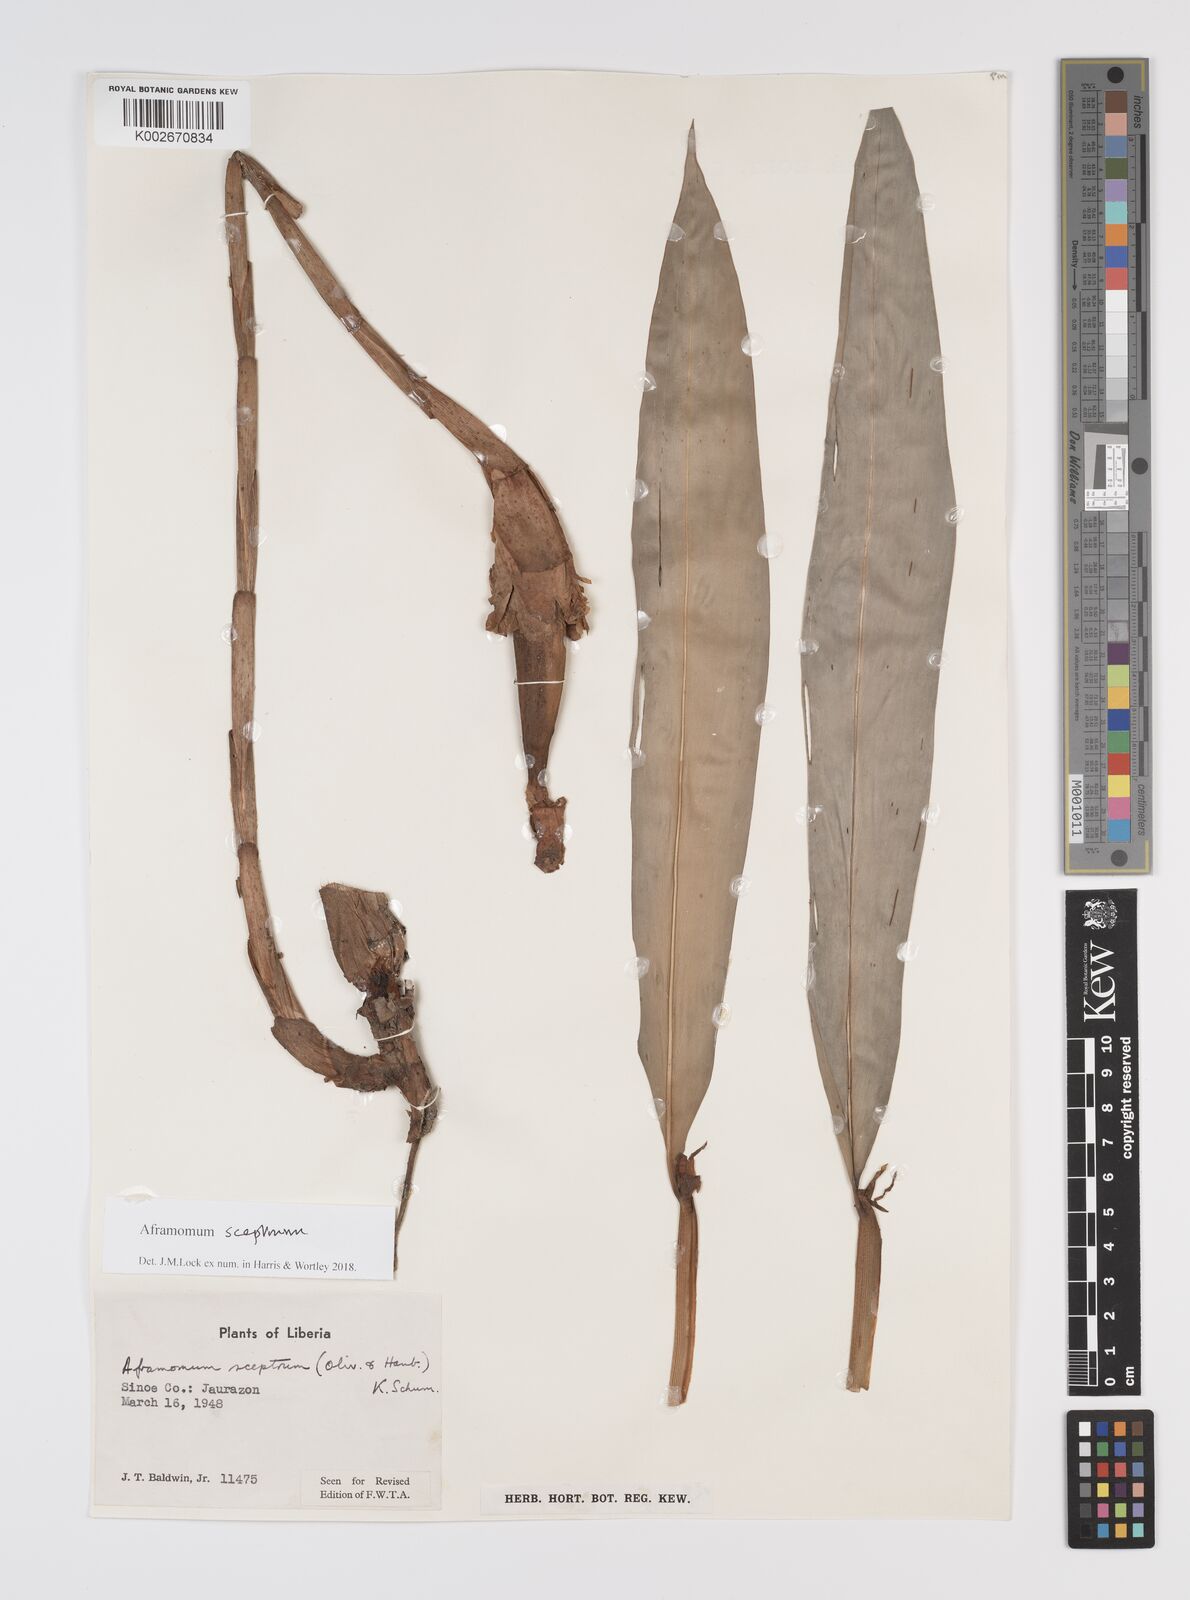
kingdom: Plantae
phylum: Tracheophyta
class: Liliopsida
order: Zingiberales
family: Zingiberaceae
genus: Aframomum
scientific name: Aframomum cereum
